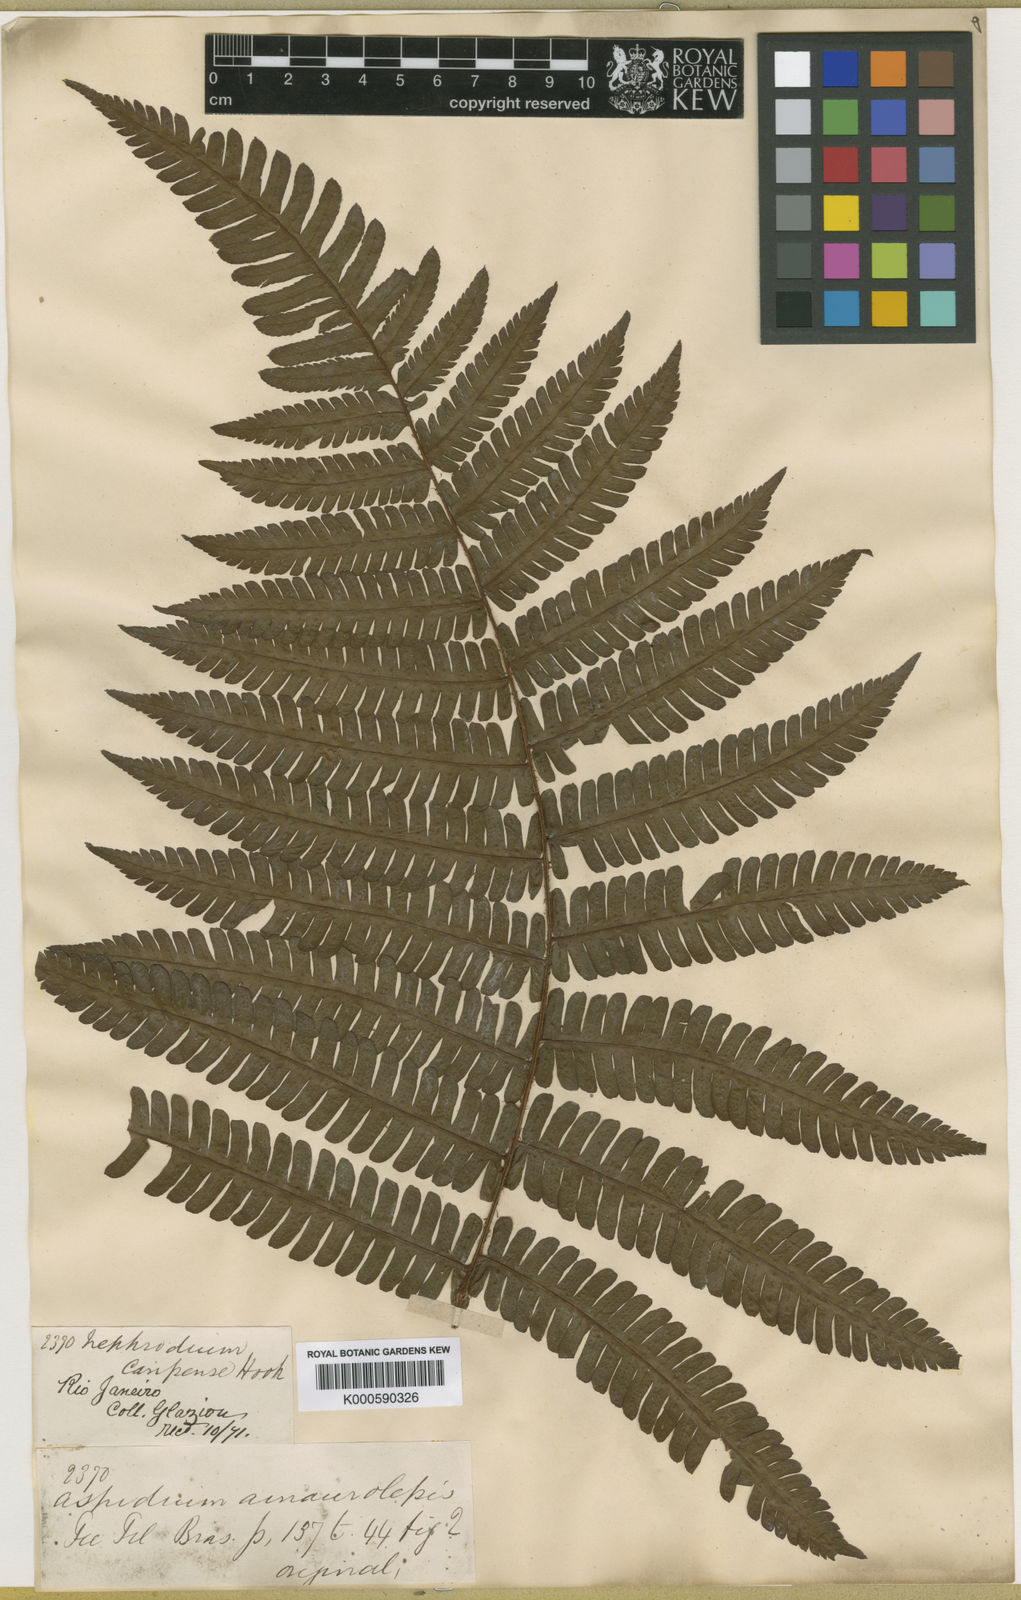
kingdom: Plantae
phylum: Tracheophyta
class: Polypodiopsida
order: Polypodiales
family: Dryopteridaceae
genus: Ctenitis
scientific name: Ctenitis distans
